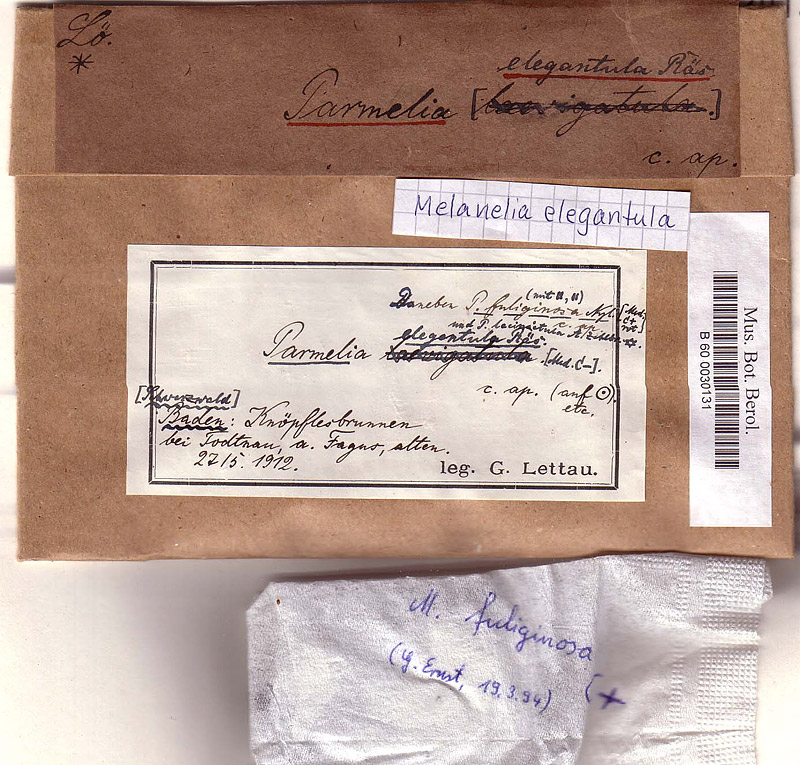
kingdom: Fungi
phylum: Ascomycota
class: Lecanoromycetes
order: Lecanorales
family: Parmeliaceae
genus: Melanohalea
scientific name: Melanohalea laciniatula
